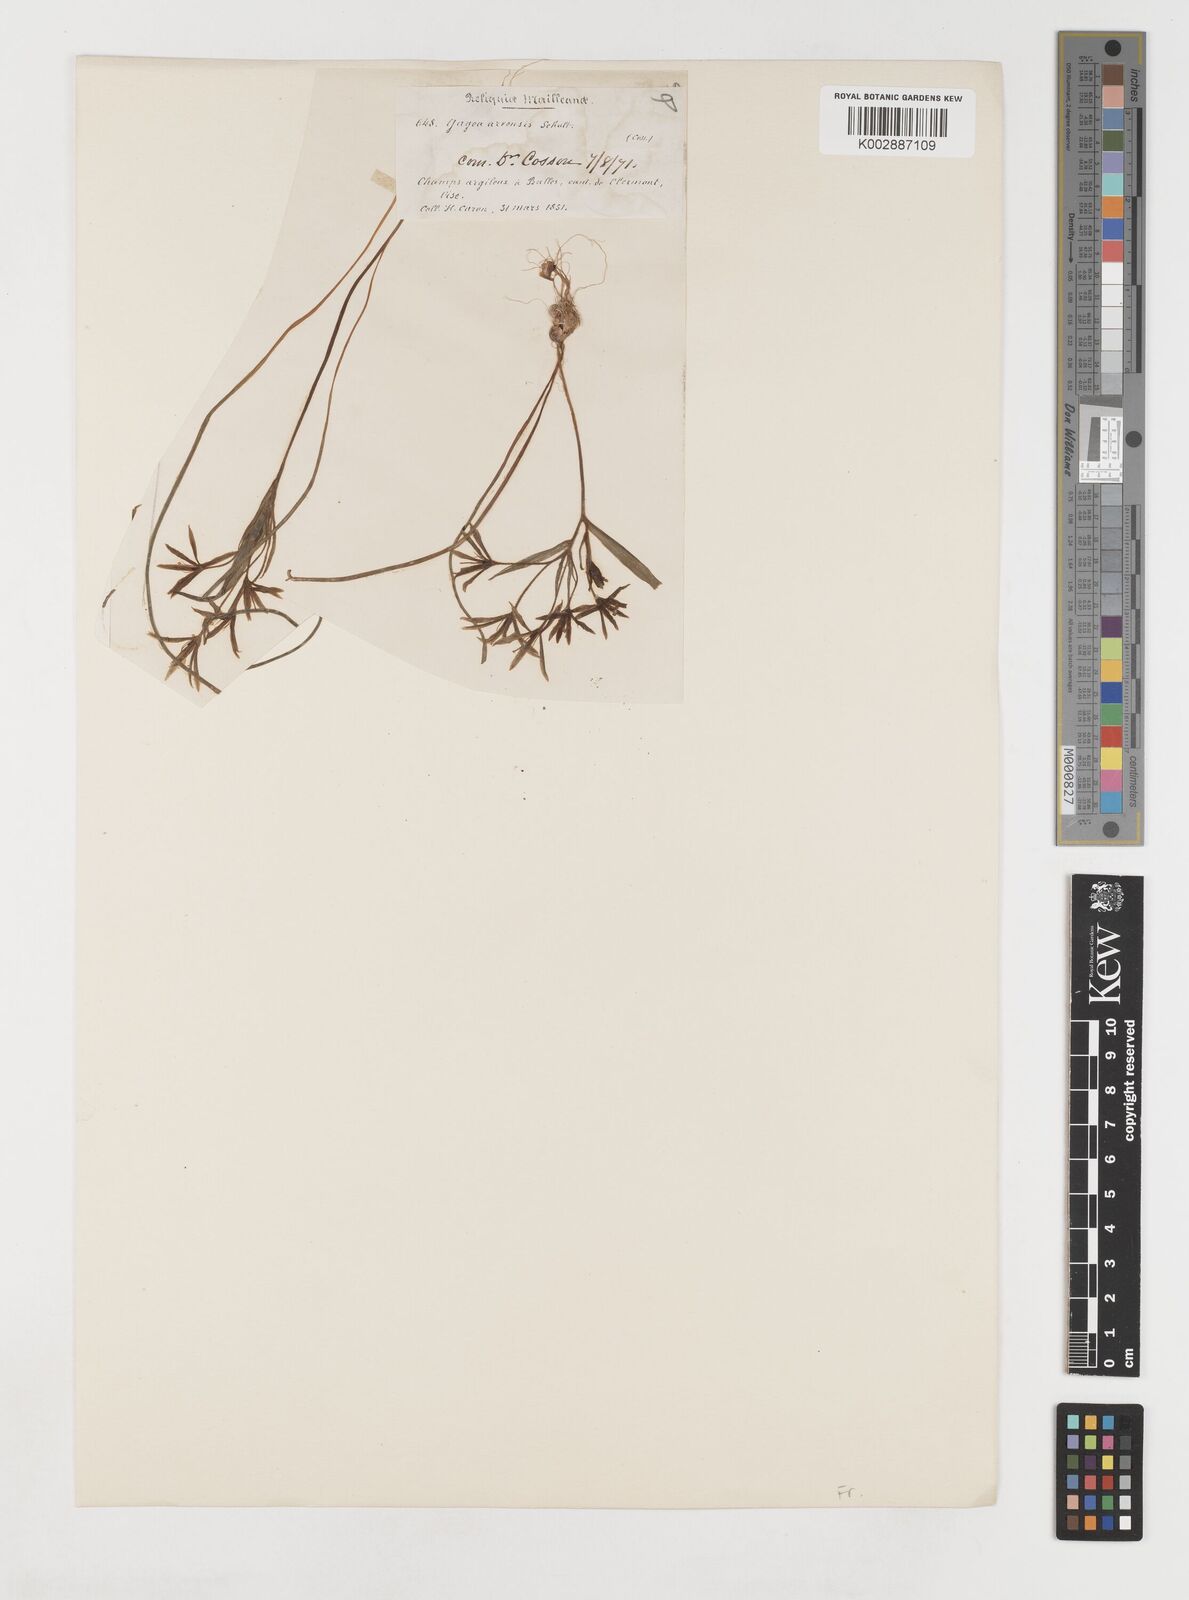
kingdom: Plantae
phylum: Tracheophyta
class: Liliopsida
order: Liliales
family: Liliaceae
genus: Gagea
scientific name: Gagea minima
